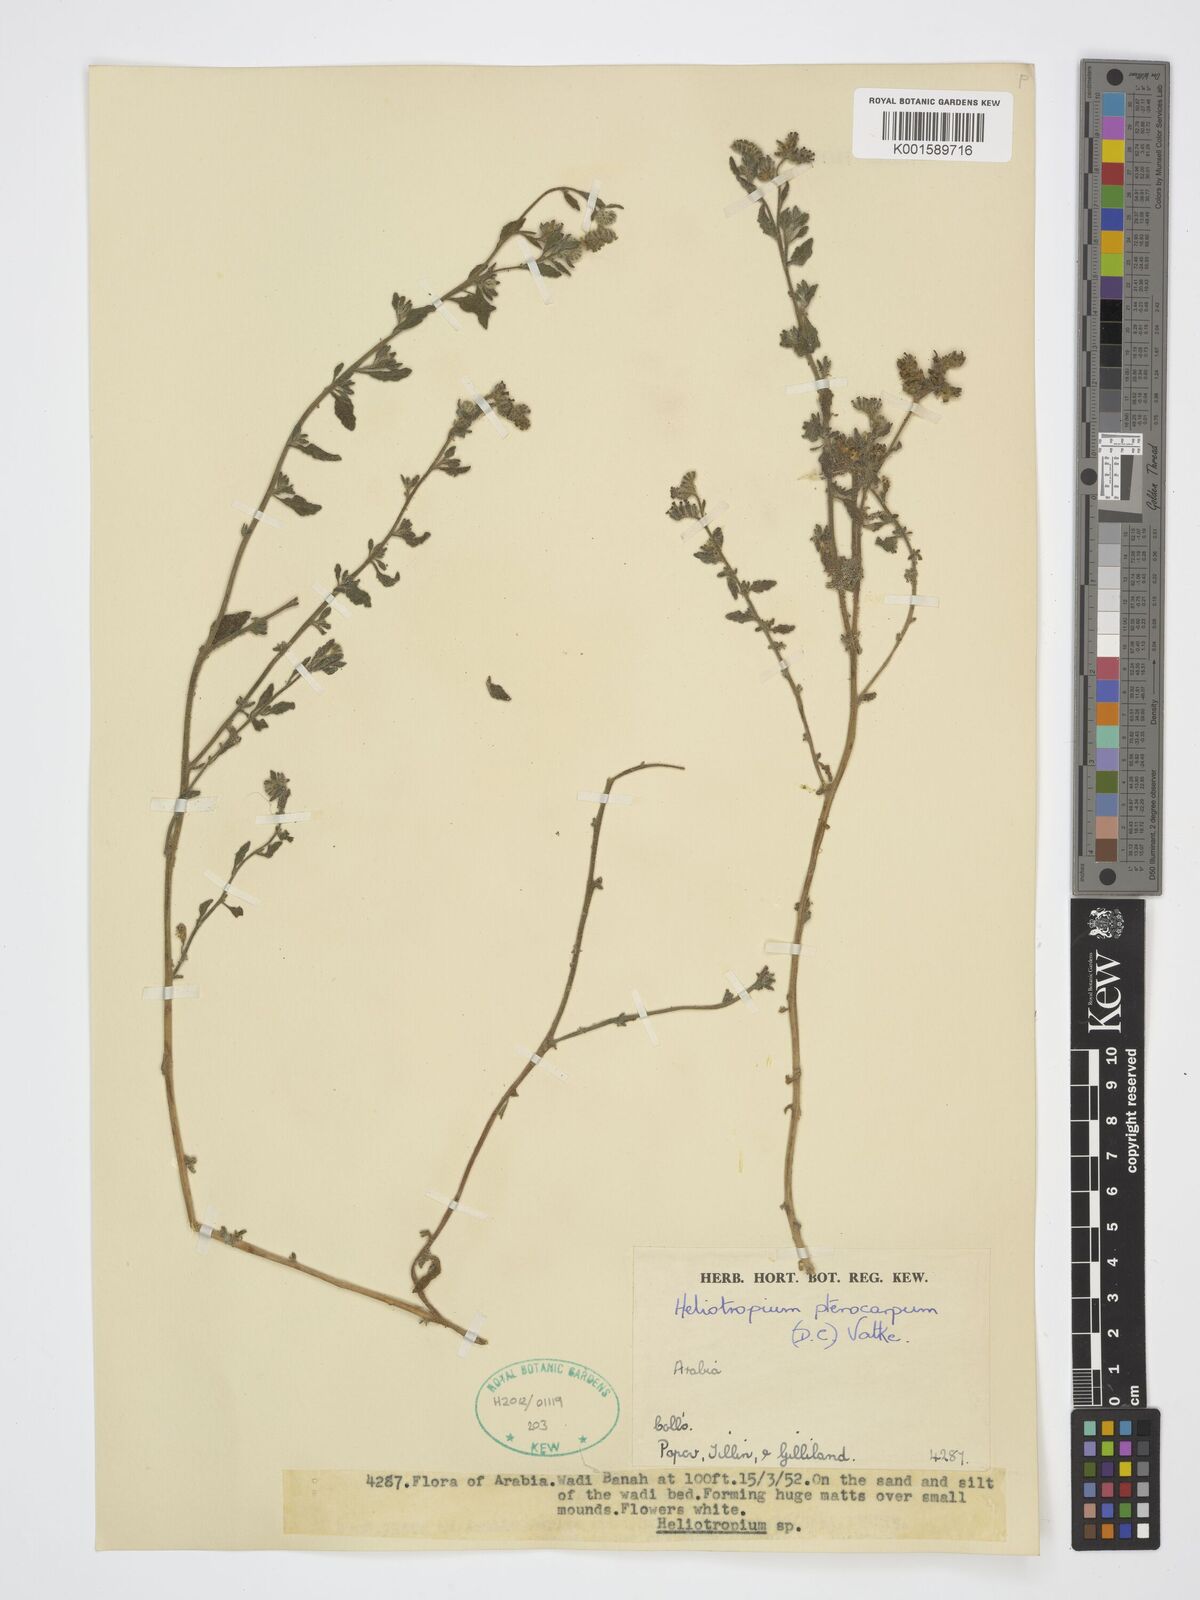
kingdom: Plantae
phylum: Tracheophyta
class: Magnoliopsida
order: Boraginales
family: Heliotropiaceae
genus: Heliotropium
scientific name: Heliotropium pterocarpum
